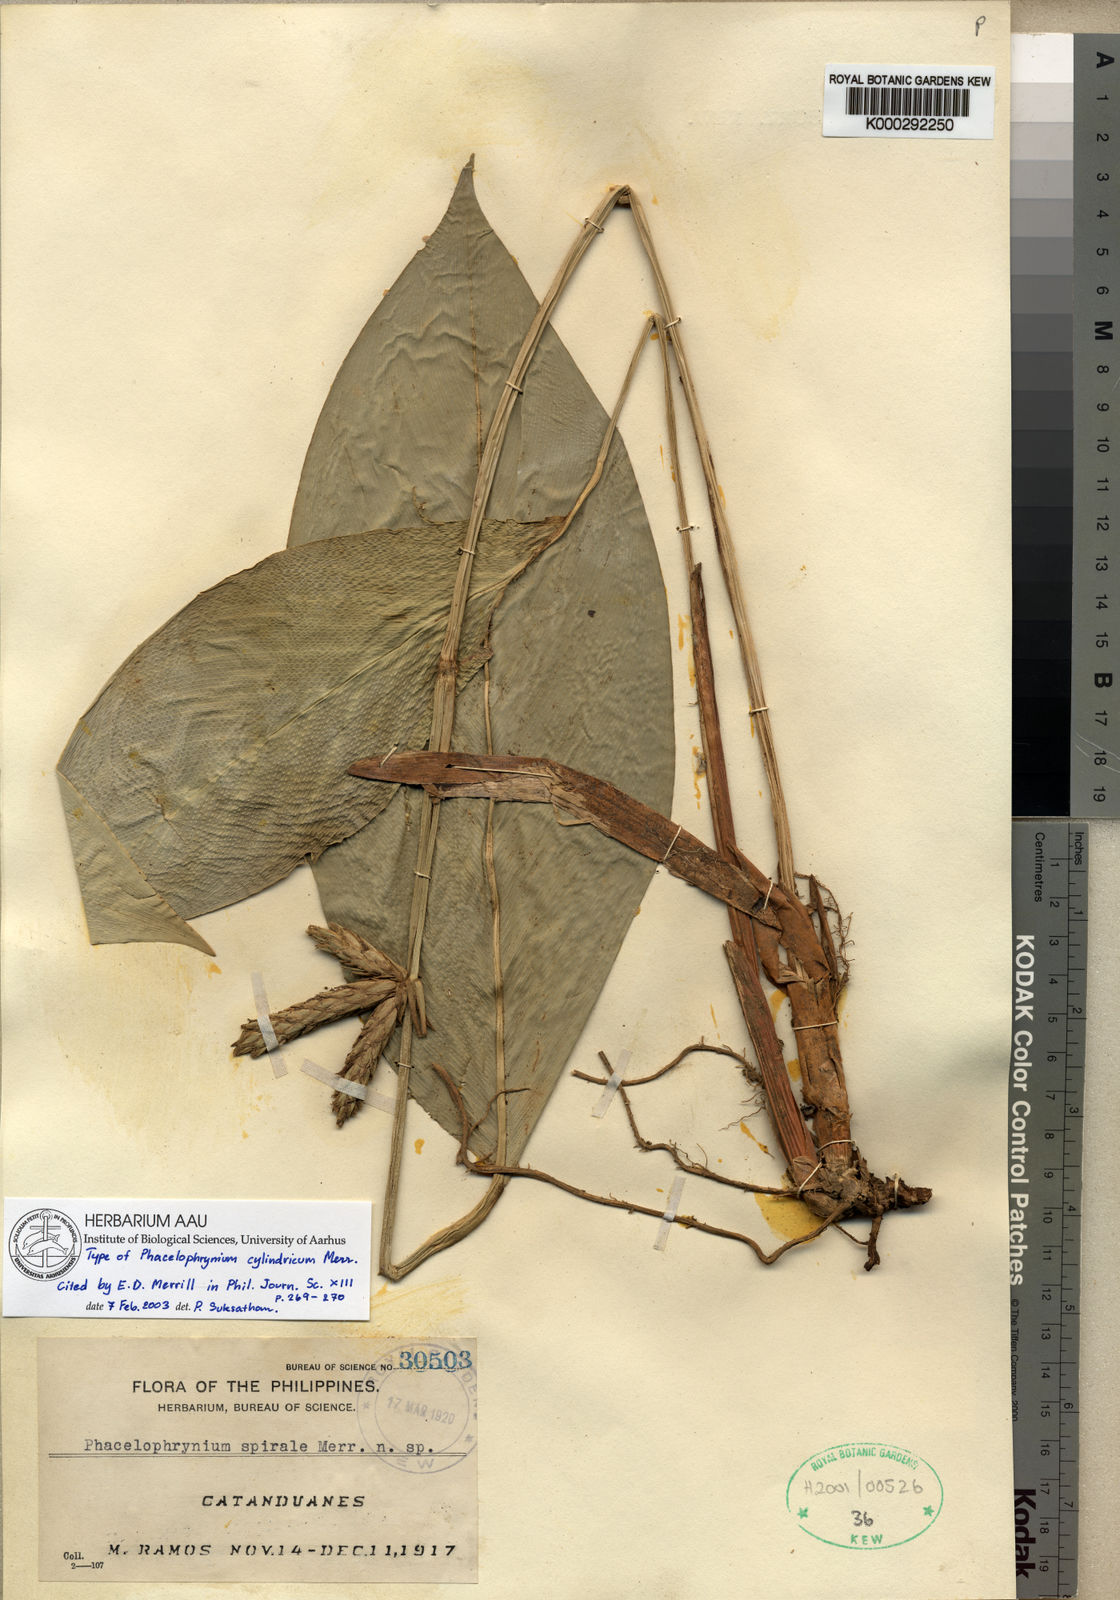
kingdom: Plantae
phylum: Tracheophyta
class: Liliopsida
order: Zingiberales
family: Marantaceae
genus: Phrynium
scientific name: Phrynium minutiflorum
